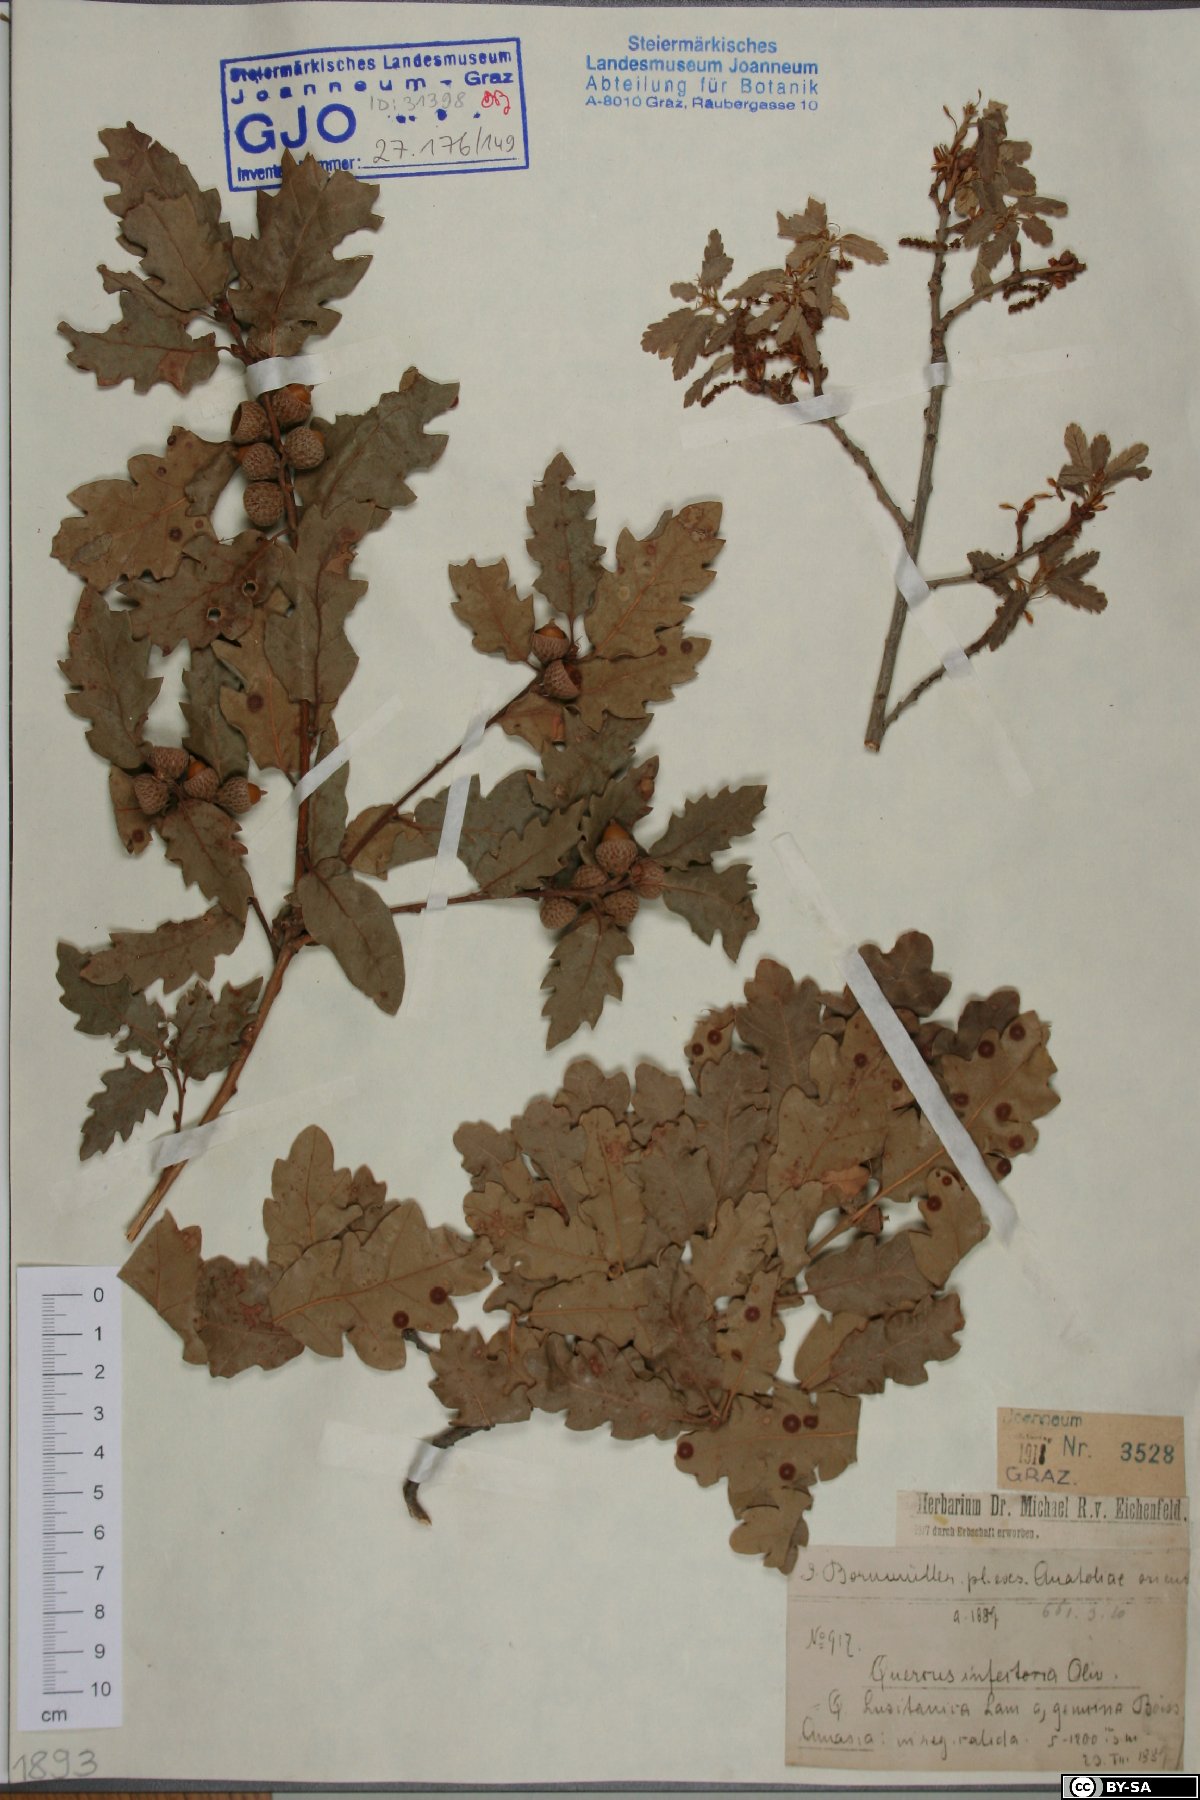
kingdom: Plantae
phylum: Tracheophyta
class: Magnoliopsida
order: Fagales
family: Fagaceae
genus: Quercus
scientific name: Quercus infectoria
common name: Aleppo oak
